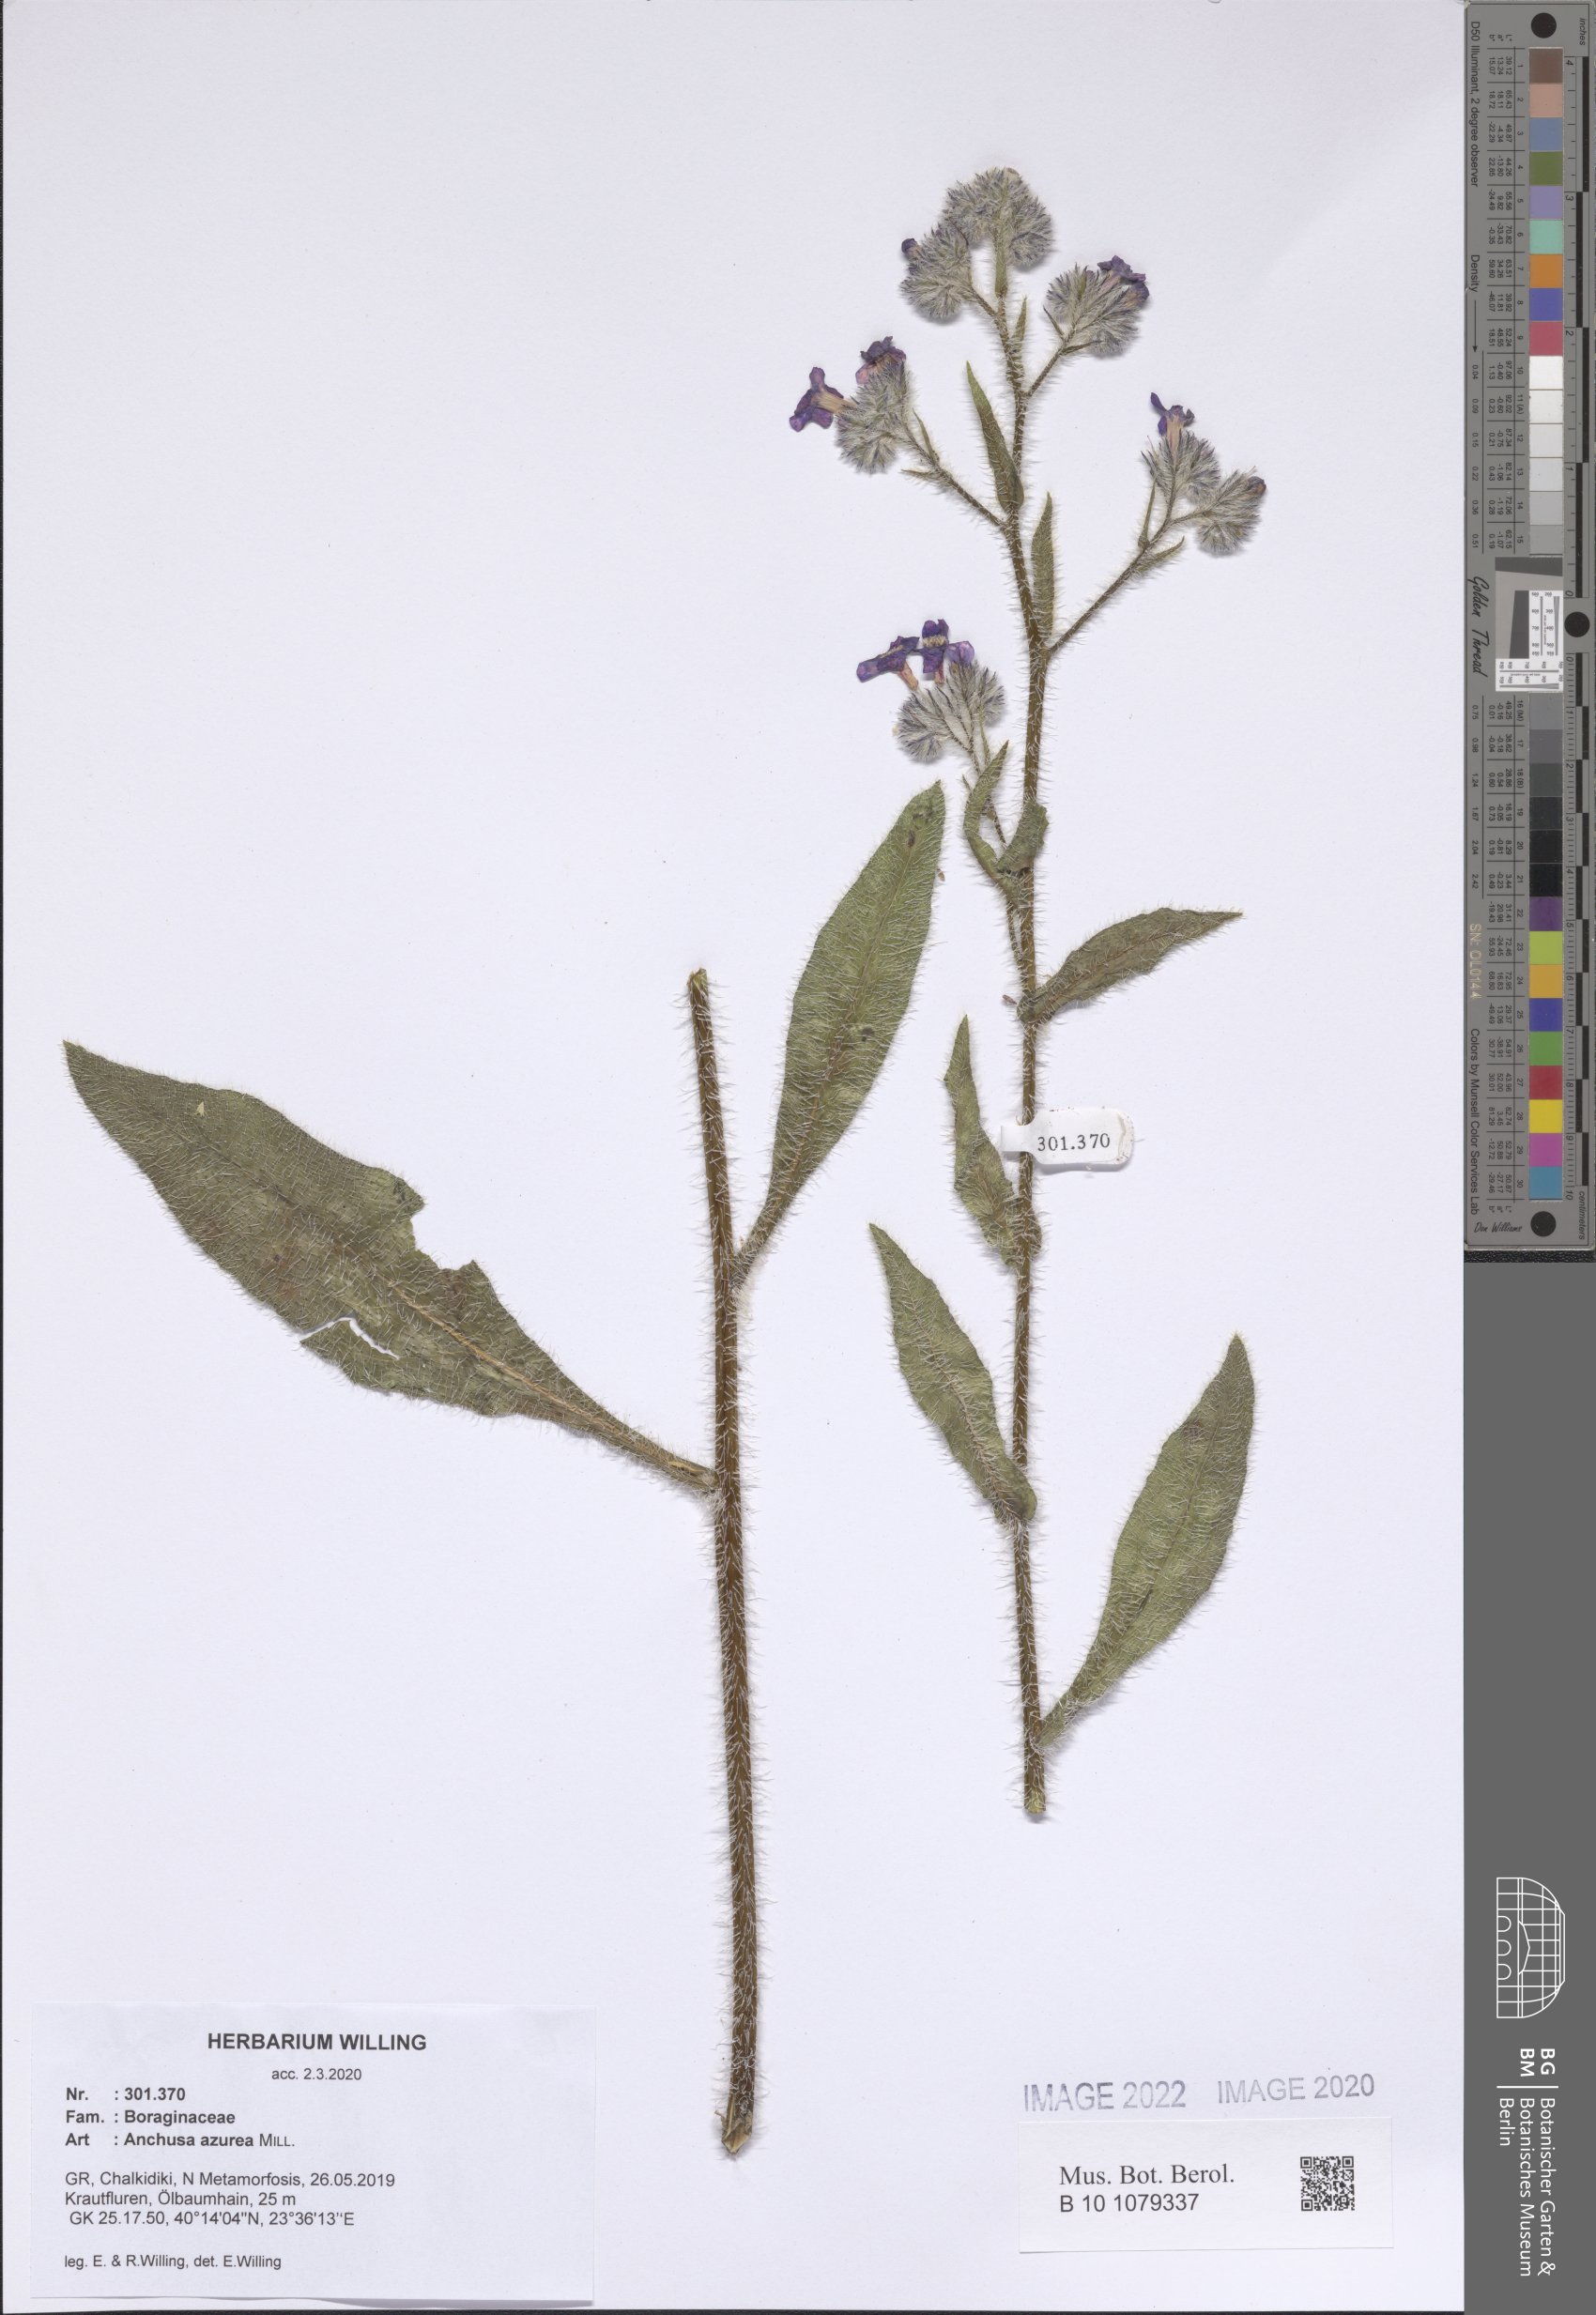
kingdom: Plantae
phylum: Tracheophyta
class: Magnoliopsida
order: Boraginales
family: Boraginaceae
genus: Anchusa
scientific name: Anchusa azurea
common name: Garden anchusa
